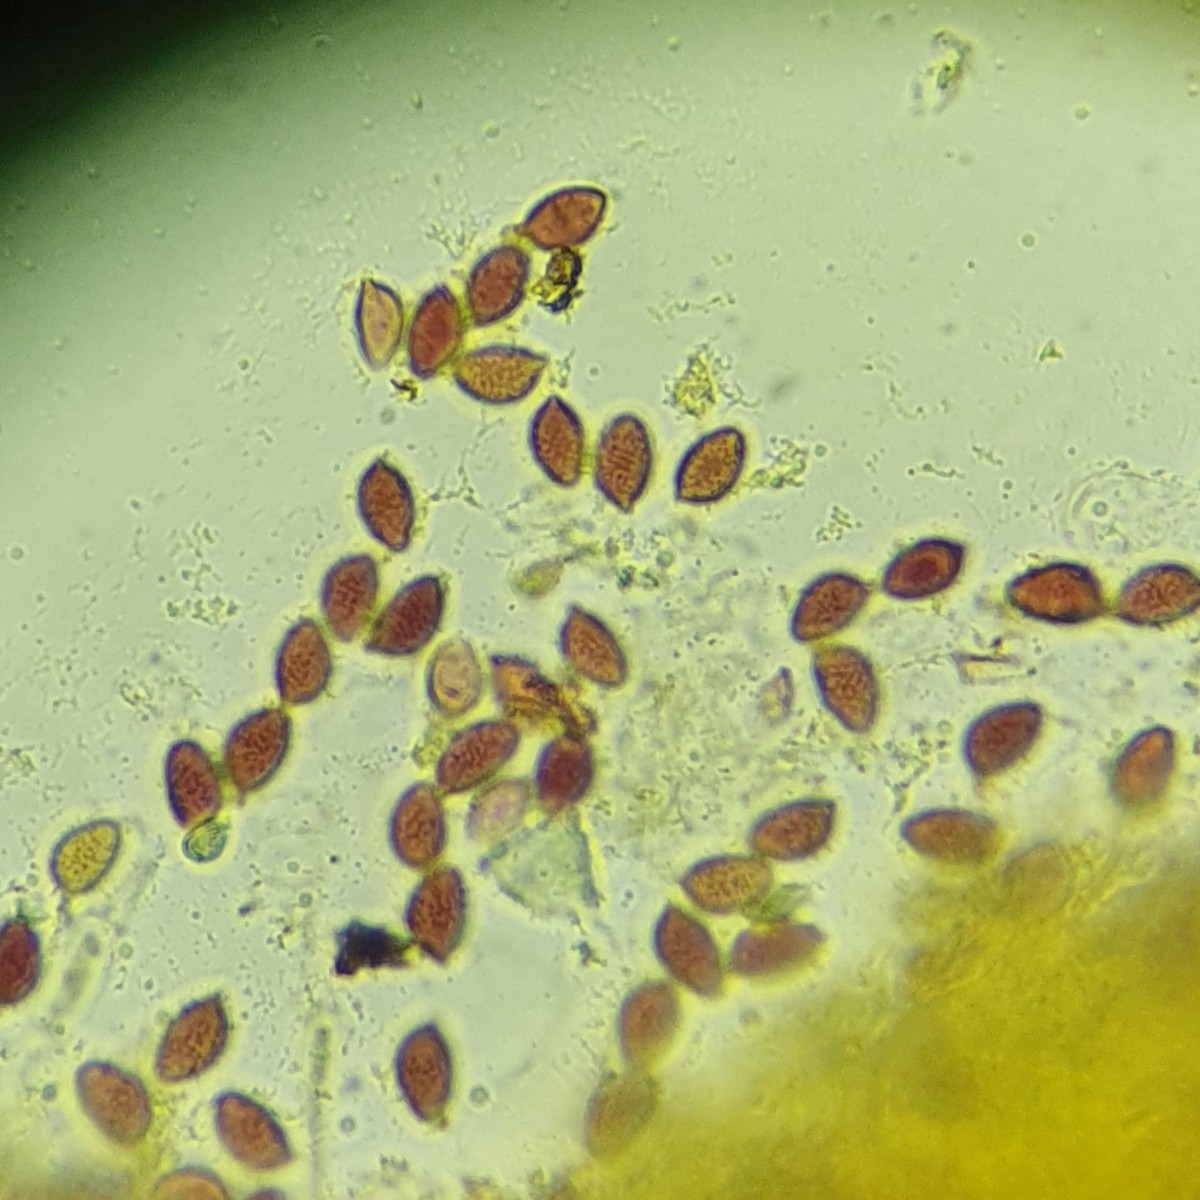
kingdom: Fungi
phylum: Basidiomycota
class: Agaricomycetes
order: Agaricales
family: Hymenogastraceae
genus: Hebeloma
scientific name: Hebeloma radicosum
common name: pælerods-tåreblad
